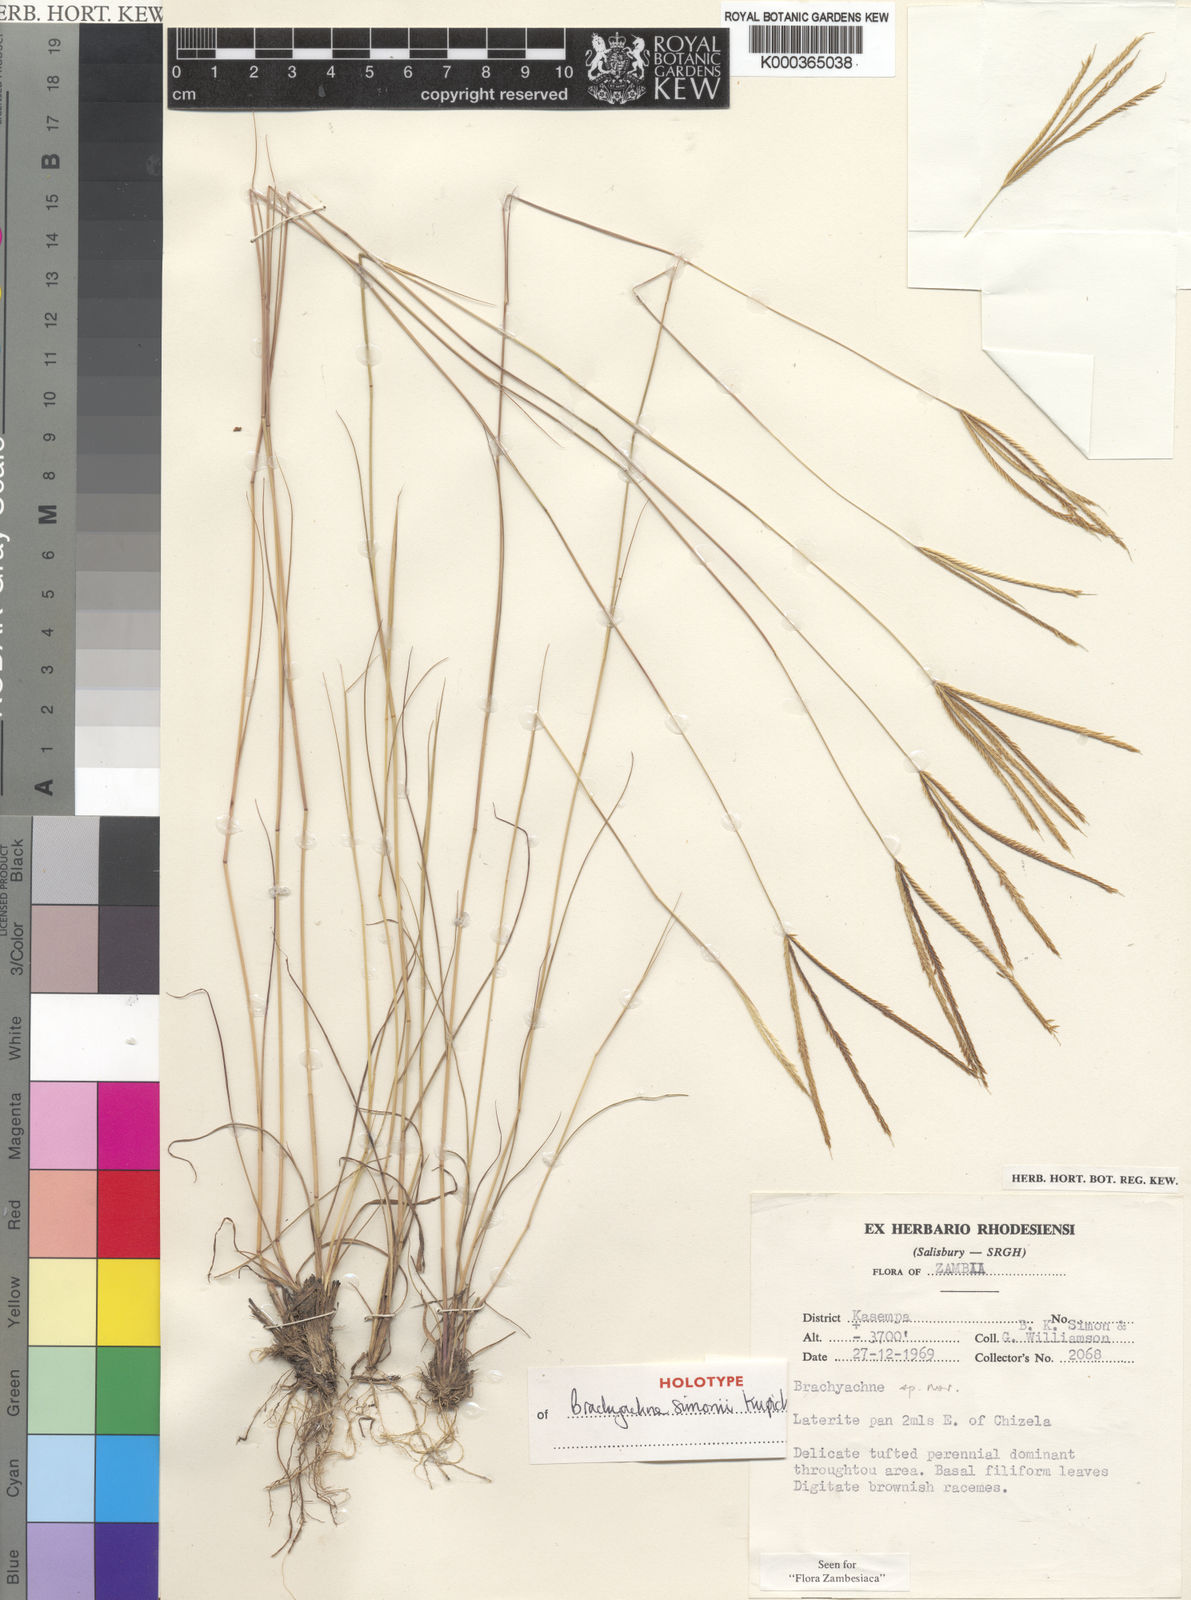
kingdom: Plantae
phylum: Tracheophyta
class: Liliopsida
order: Poales
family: Poaceae
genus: Micrachne
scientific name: Micrachne simonii
